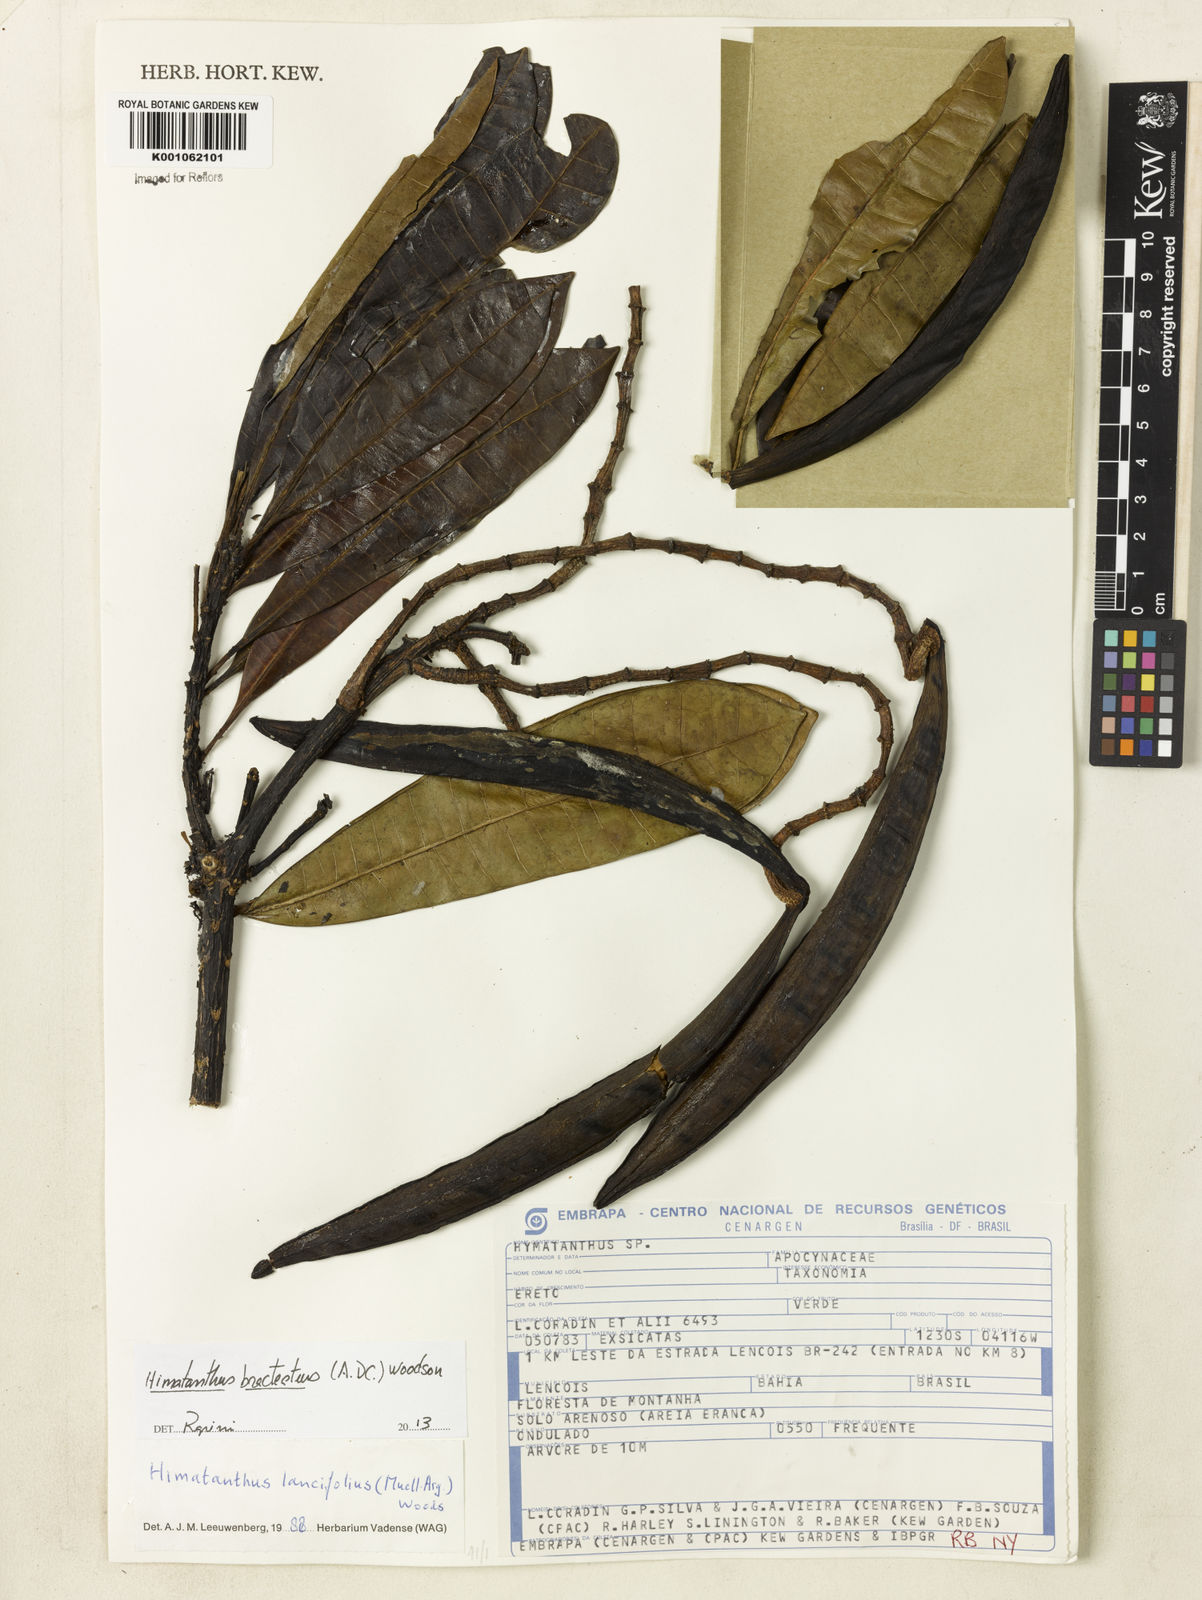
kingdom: Plantae
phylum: Tracheophyta
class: Magnoliopsida
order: Gentianales
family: Apocynaceae
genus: Himatanthus
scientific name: Himatanthus bracteatus
